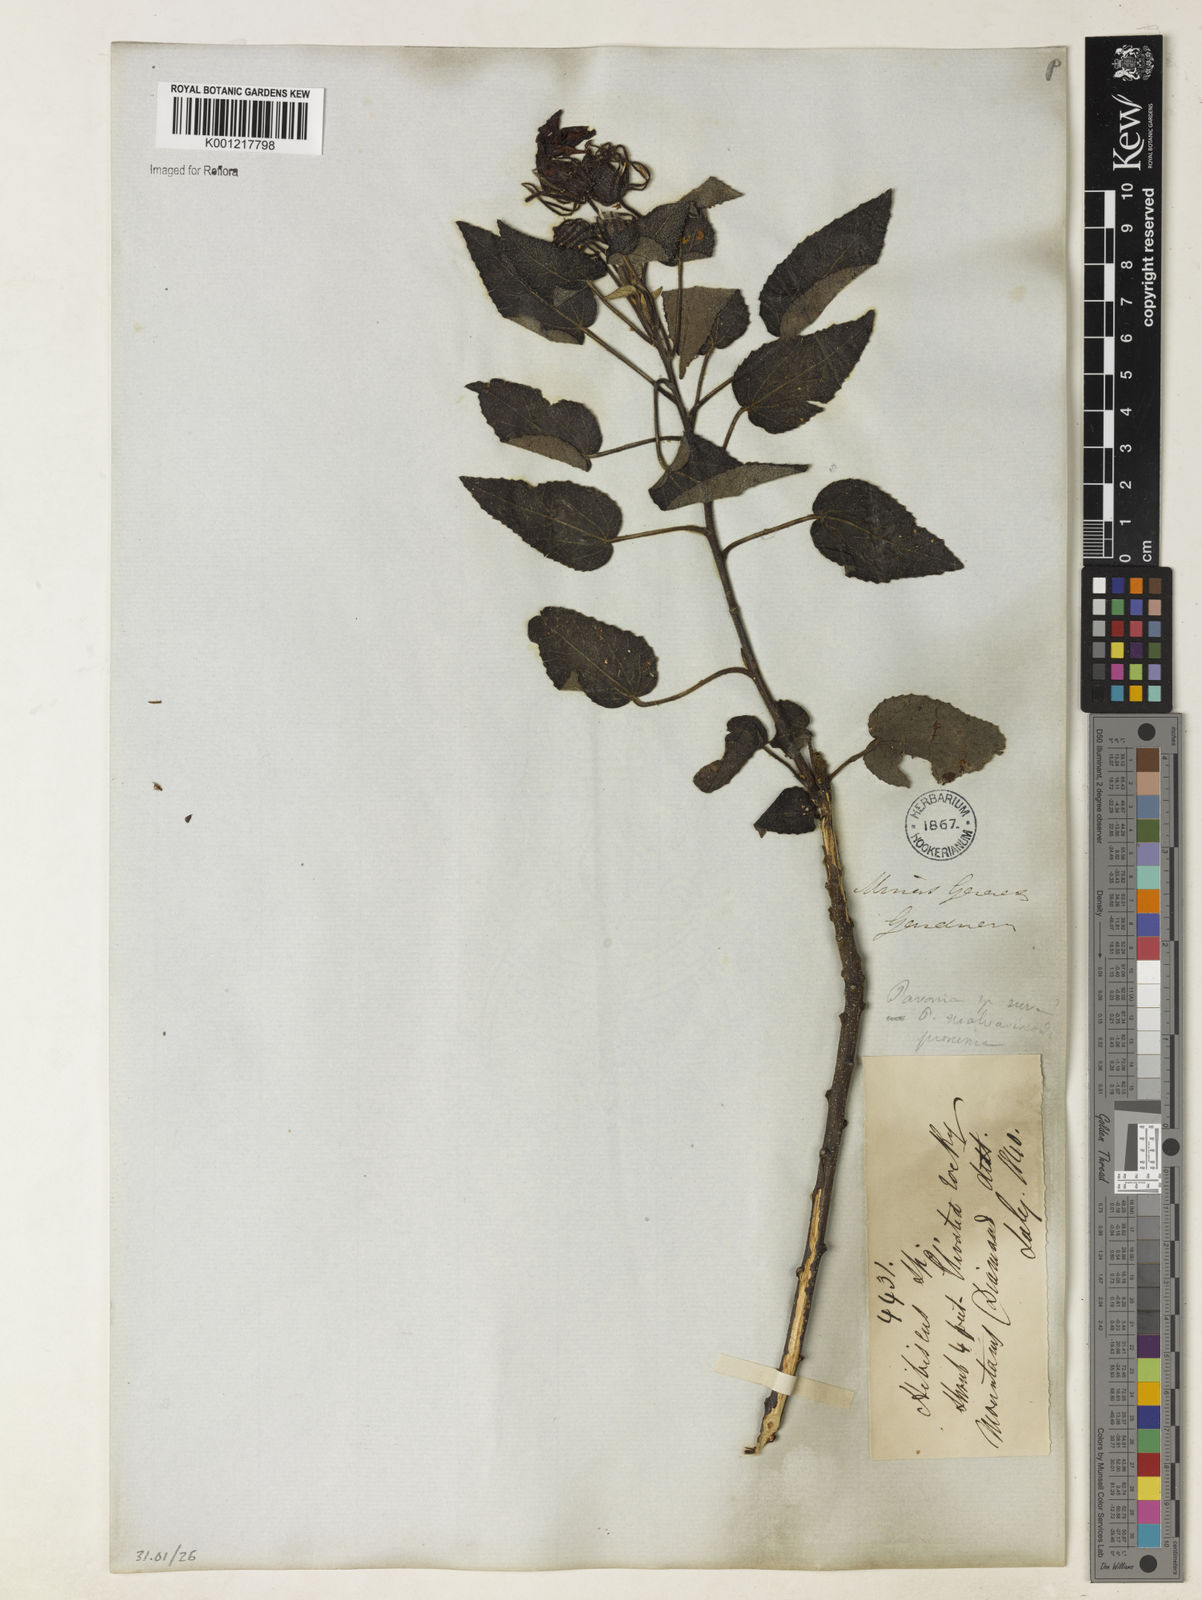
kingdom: Plantae
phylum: Tracheophyta
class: Magnoliopsida
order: Malvales
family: Malvaceae
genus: Pavonia
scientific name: Pavonia
